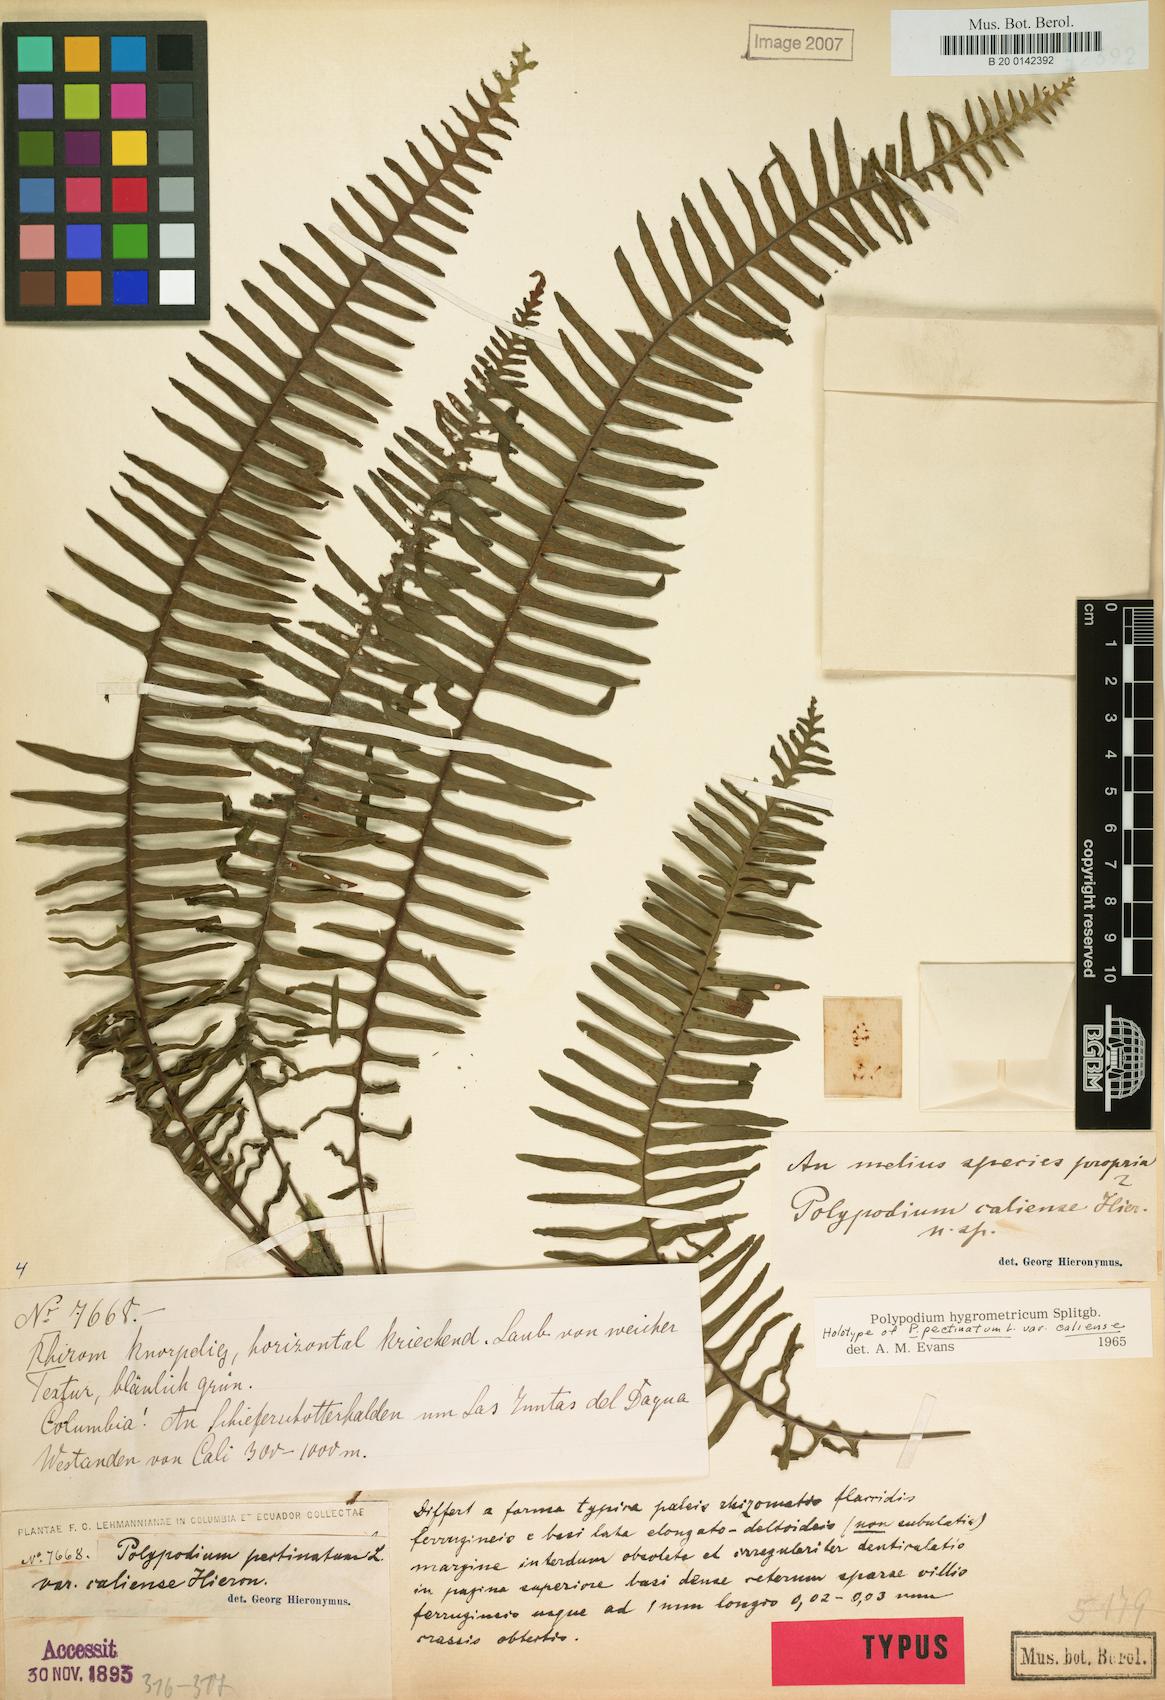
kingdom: Plantae
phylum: Tracheophyta
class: Polypodiopsida
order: Polypodiales
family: Polypodiaceae
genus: Pecluma
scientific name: Pecluma hygrometrica
